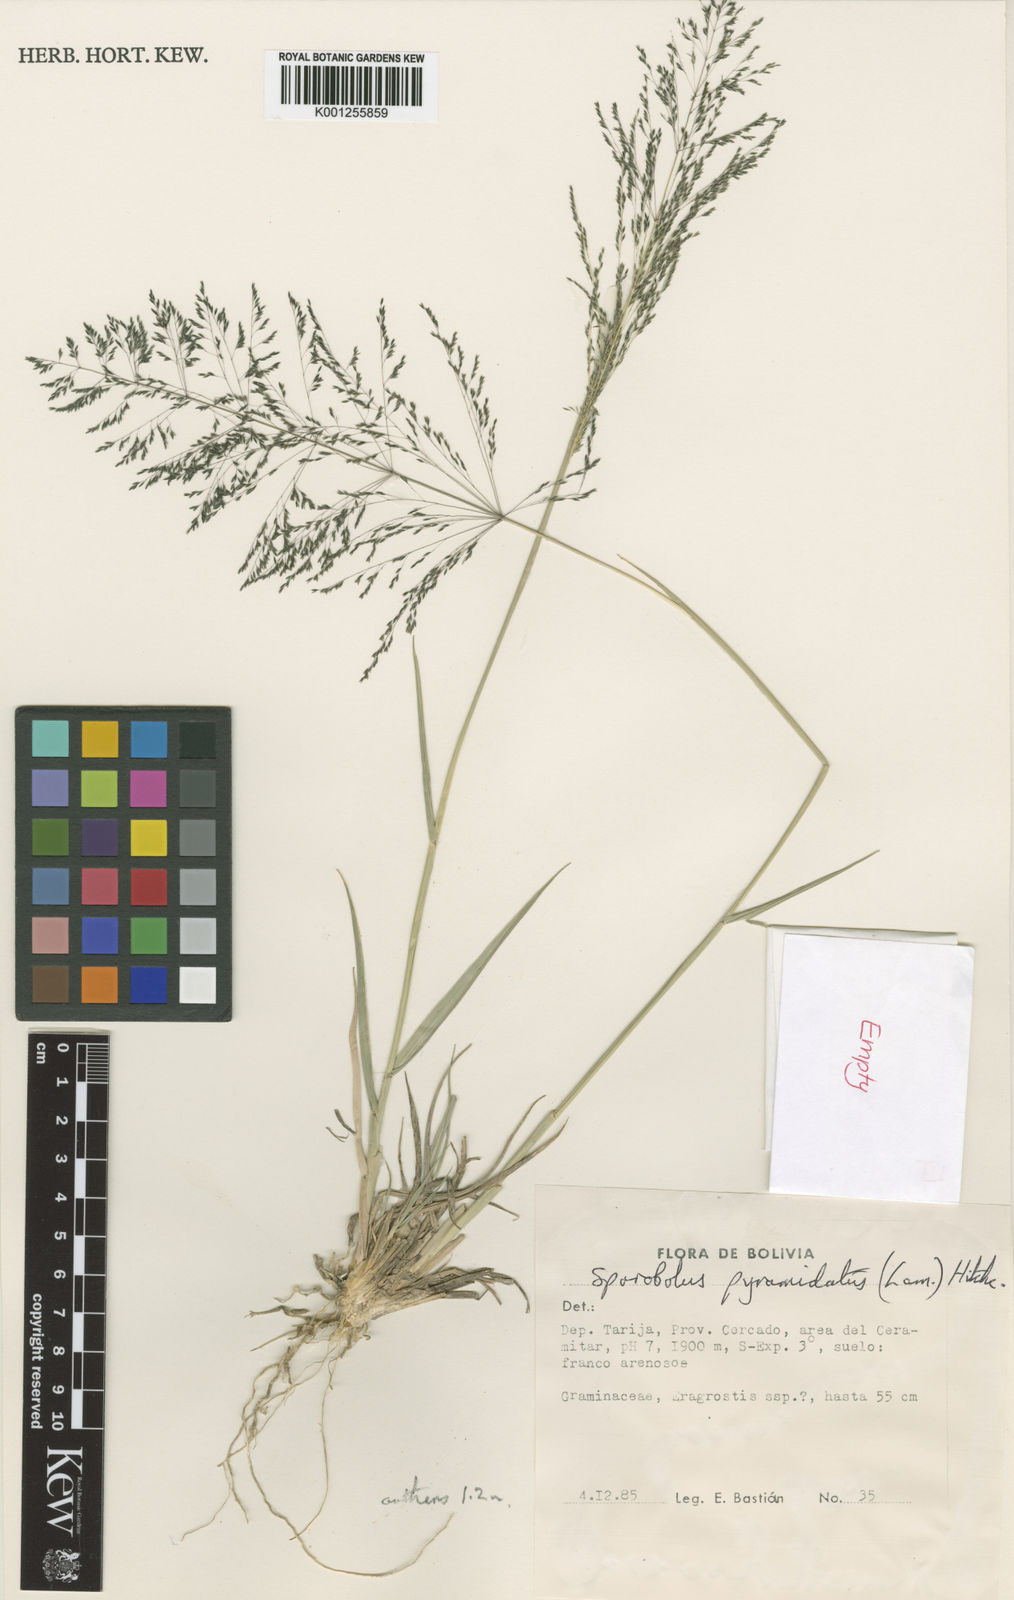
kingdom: Plantae
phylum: Tracheophyta
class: Liliopsida
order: Poales
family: Poaceae
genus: Sporobolus
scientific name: Sporobolus pyramidatus
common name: Whorled dropseed
